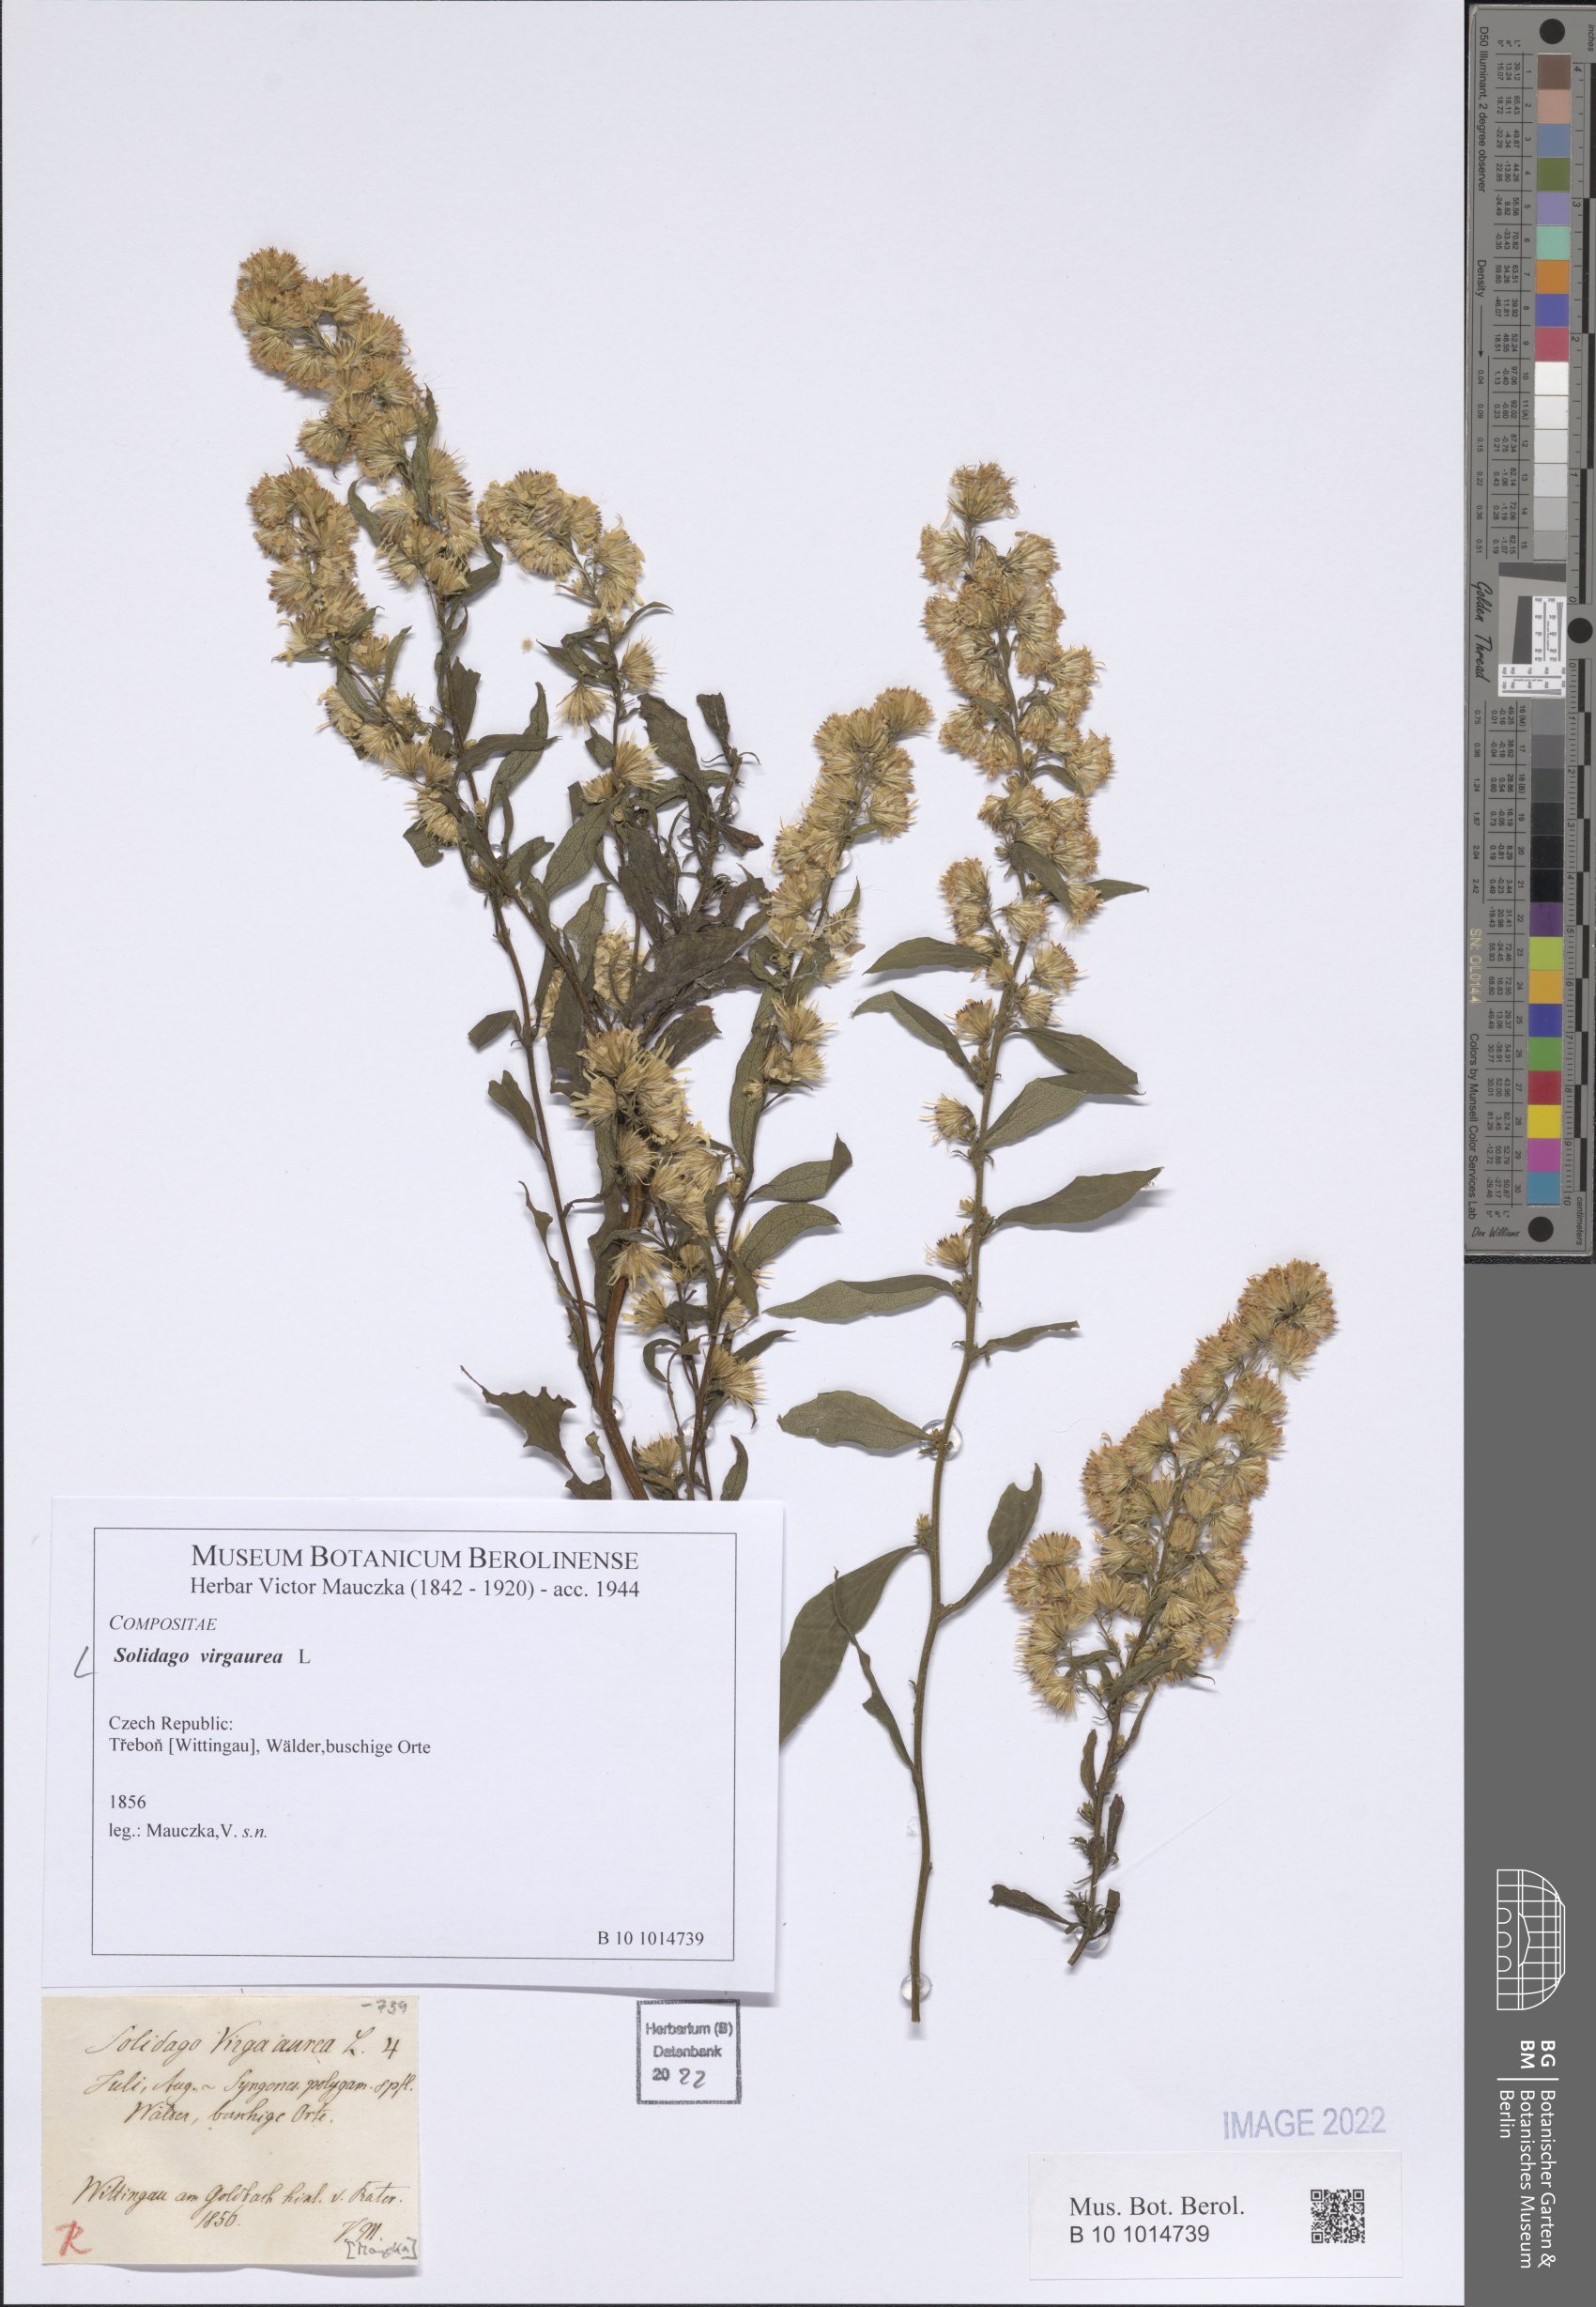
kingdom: Plantae
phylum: Tracheophyta
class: Magnoliopsida
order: Asterales
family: Asteraceae
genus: Solidago
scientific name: Solidago virgaurea
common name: Goldenrod
